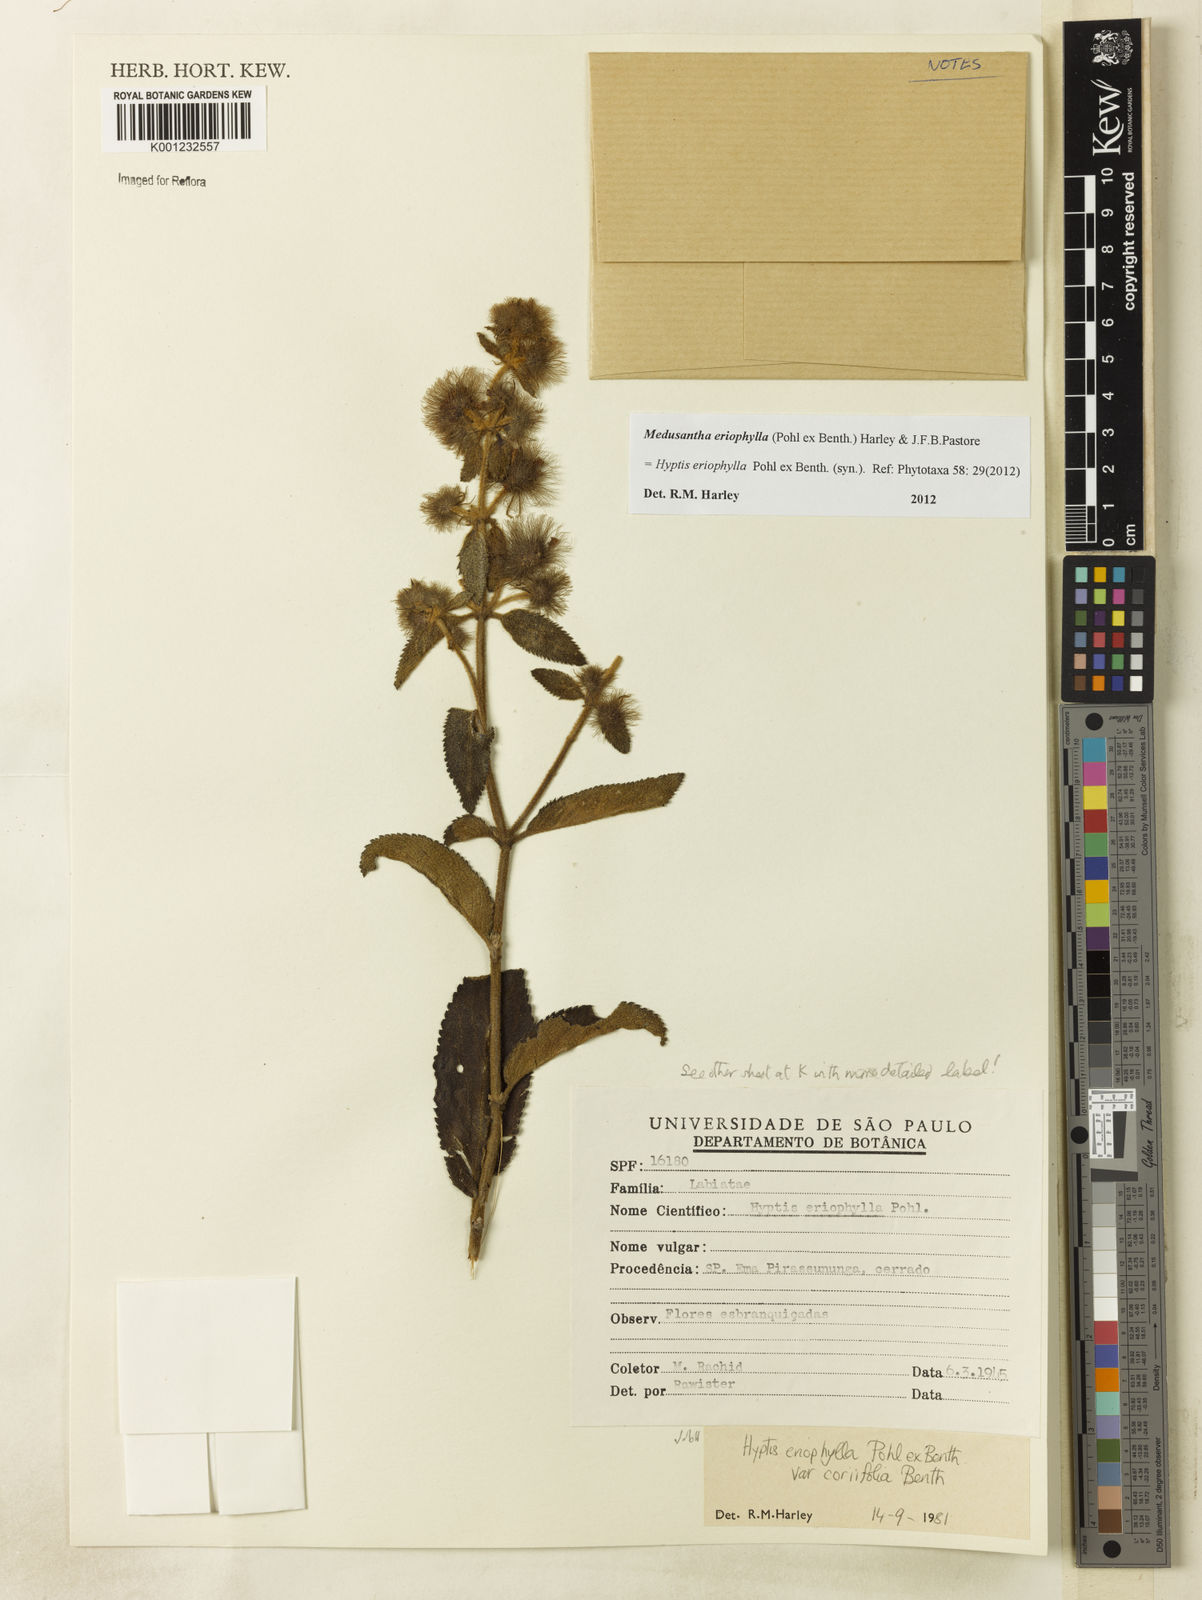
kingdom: Plantae
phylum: Tracheophyta
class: Magnoliopsida
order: Lamiales
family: Lamiaceae
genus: Medusantha
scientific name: Medusantha eriophylla
